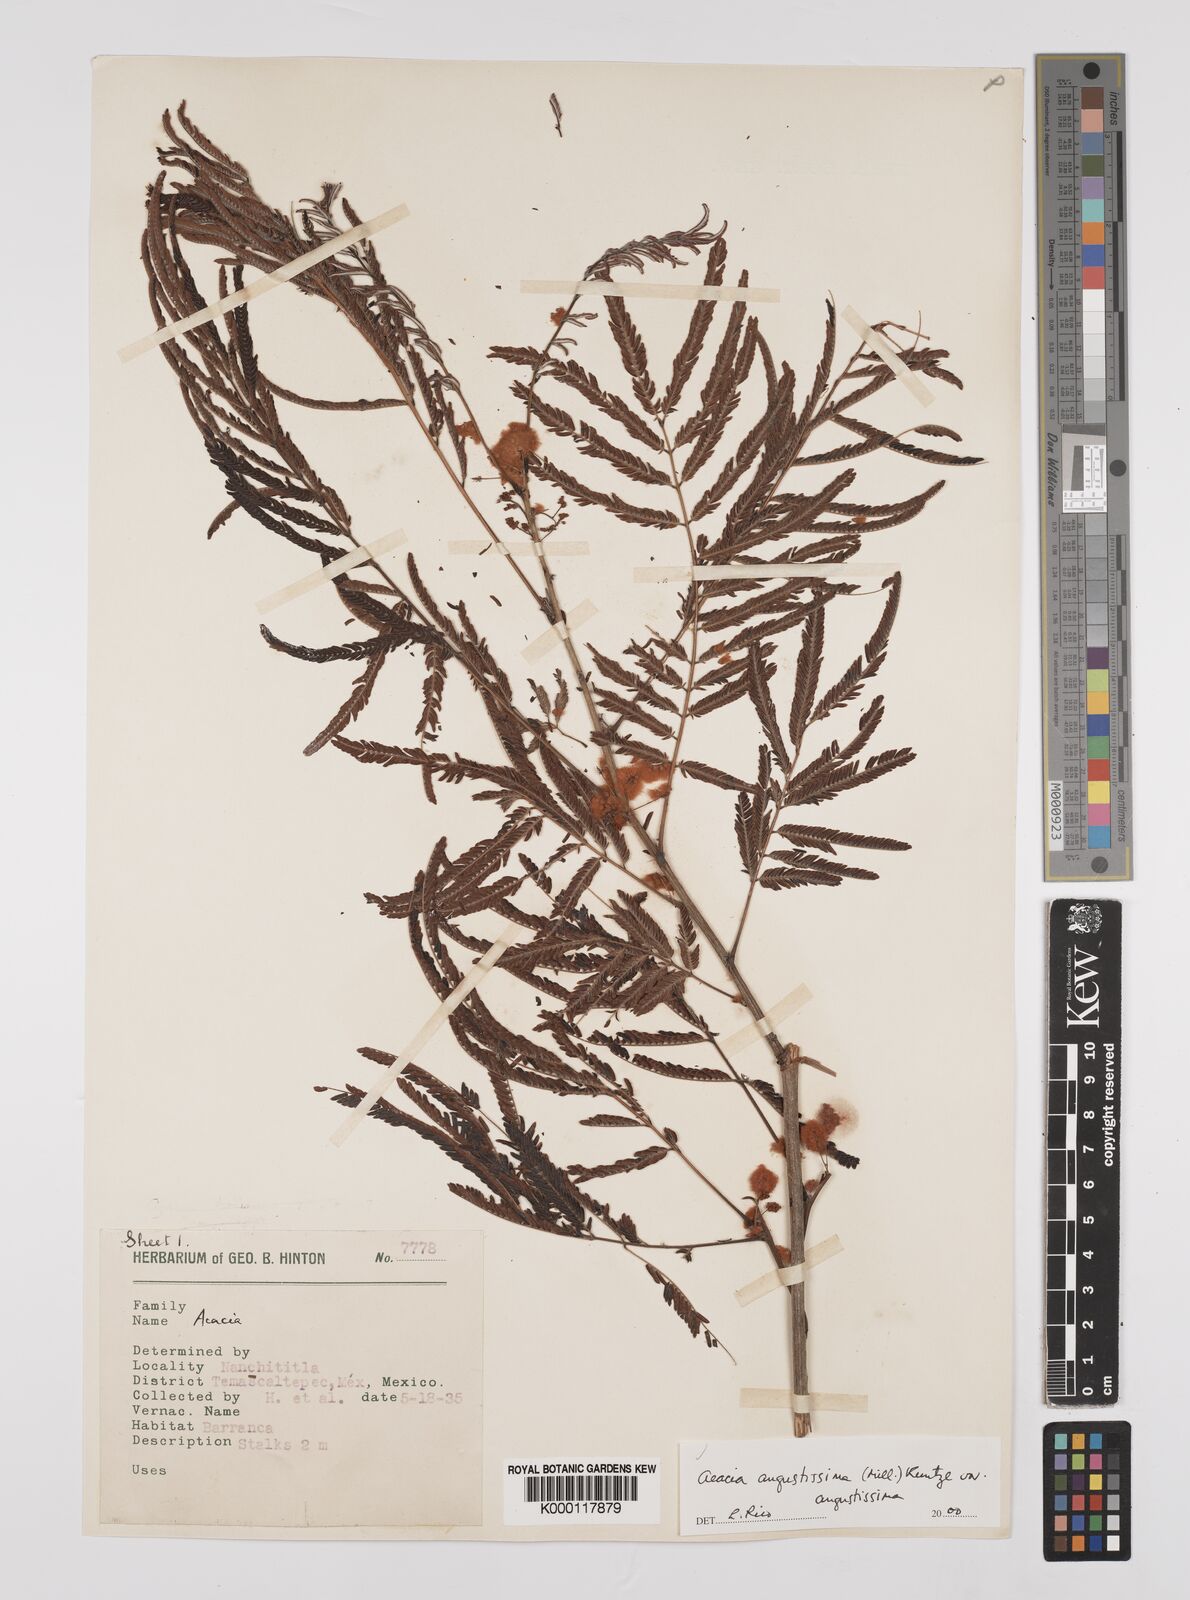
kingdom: Plantae
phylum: Tracheophyta
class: Magnoliopsida
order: Fabales
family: Fabaceae
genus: Acaciella
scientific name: Acaciella angustissima
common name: Prairie acacia
